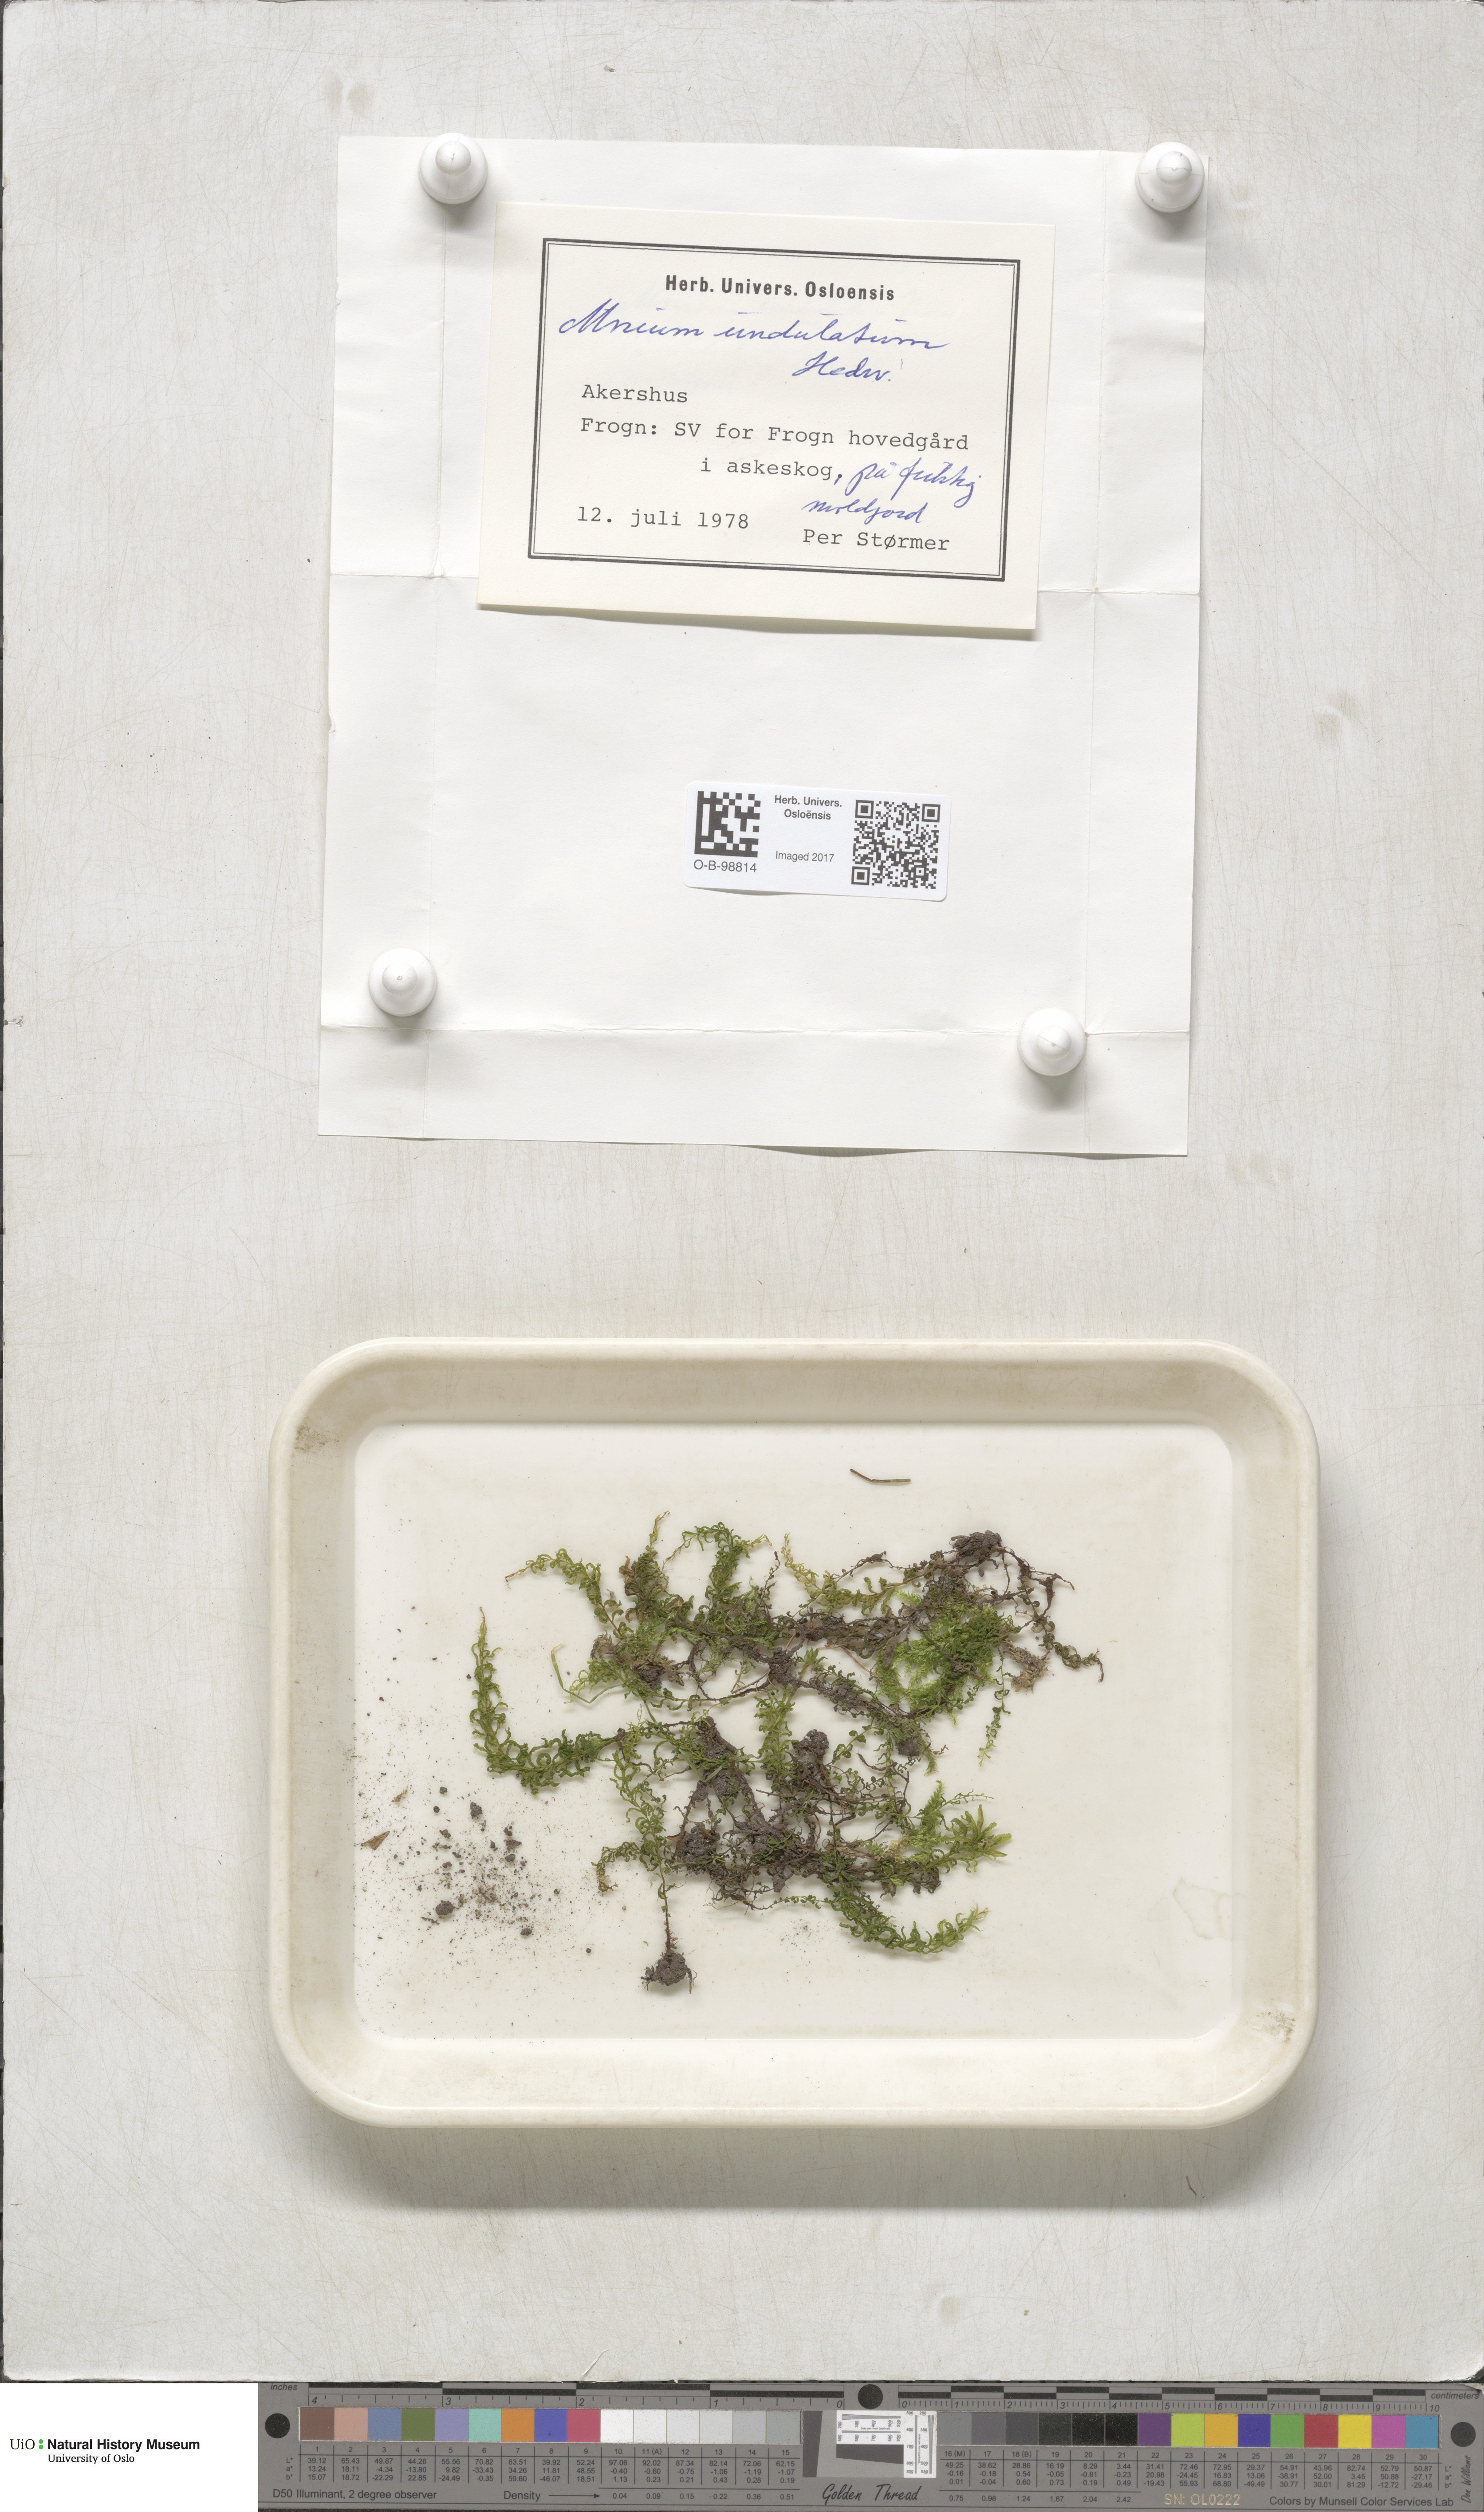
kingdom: Plantae
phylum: Bryophyta
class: Bryopsida
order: Bryales
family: Mniaceae
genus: Plagiomnium
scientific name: Plagiomnium undulatum
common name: Hart's-tongue thyme-moss
